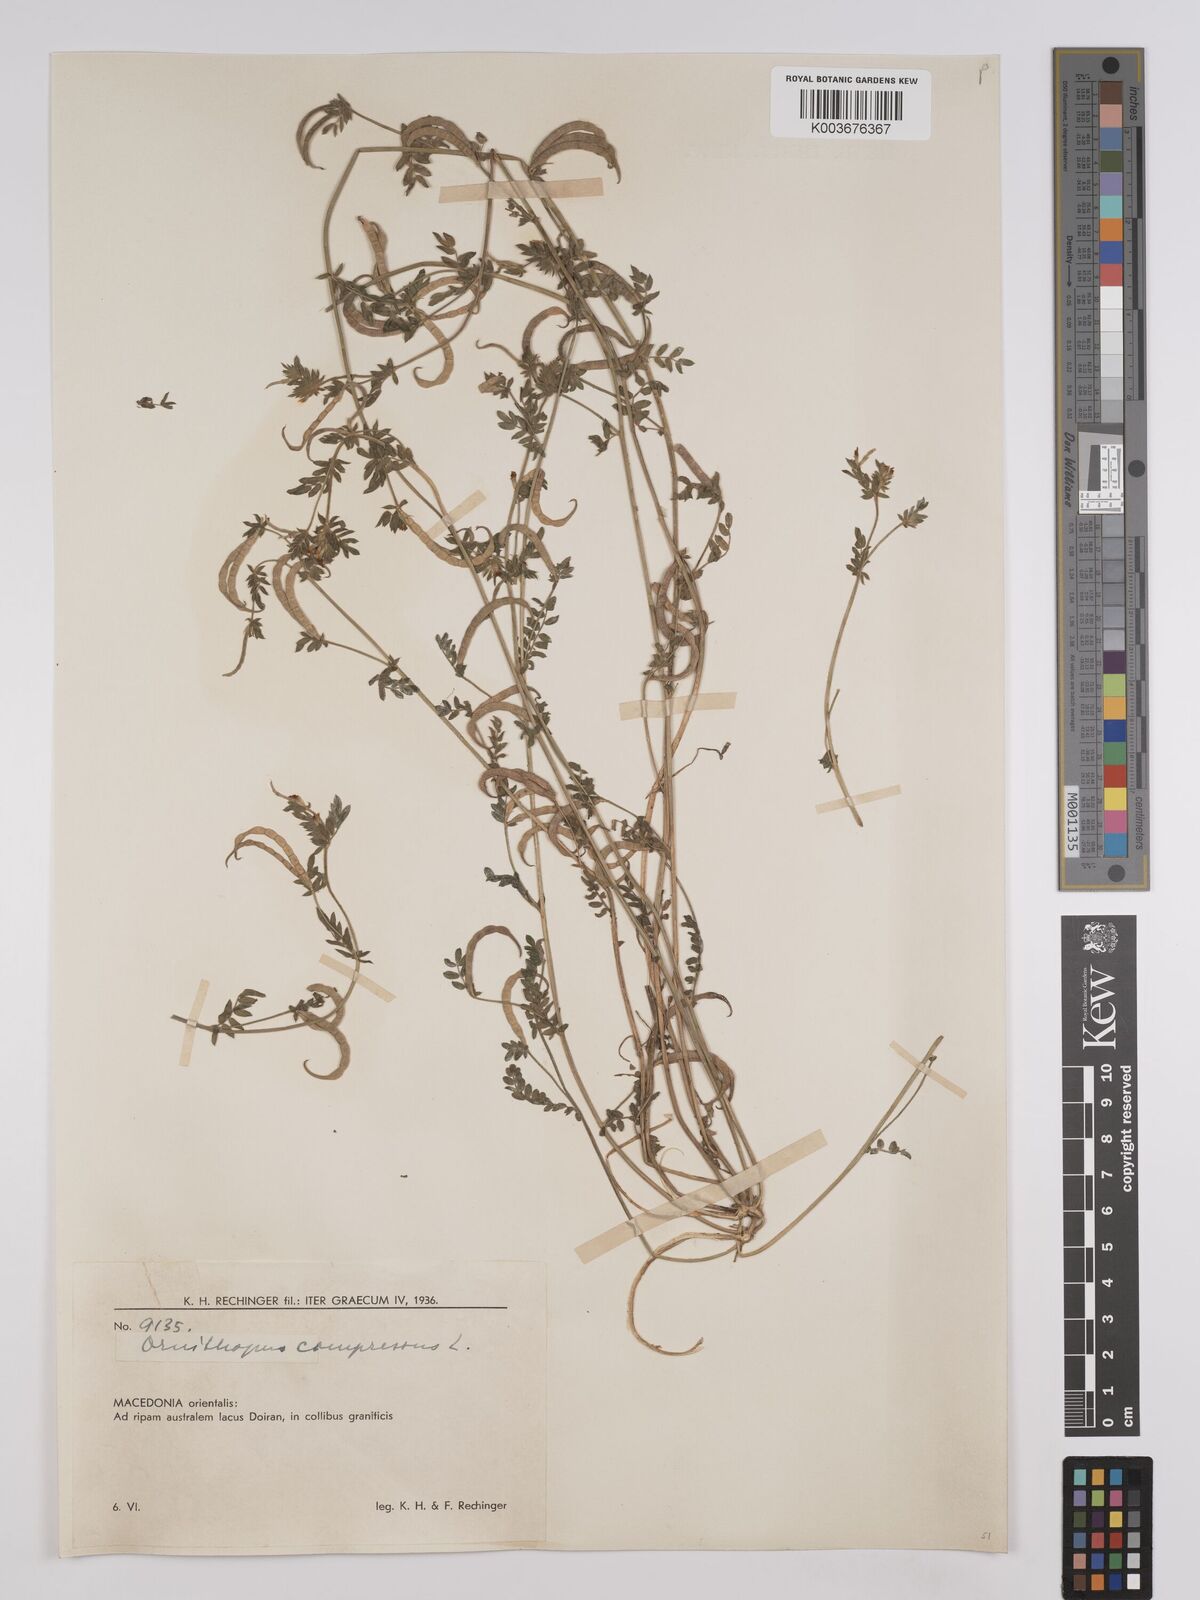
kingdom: Plantae
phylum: Tracheophyta
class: Magnoliopsida
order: Fabales
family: Fabaceae
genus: Ornithopus
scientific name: Ornithopus compressus
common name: Yellow serradella
